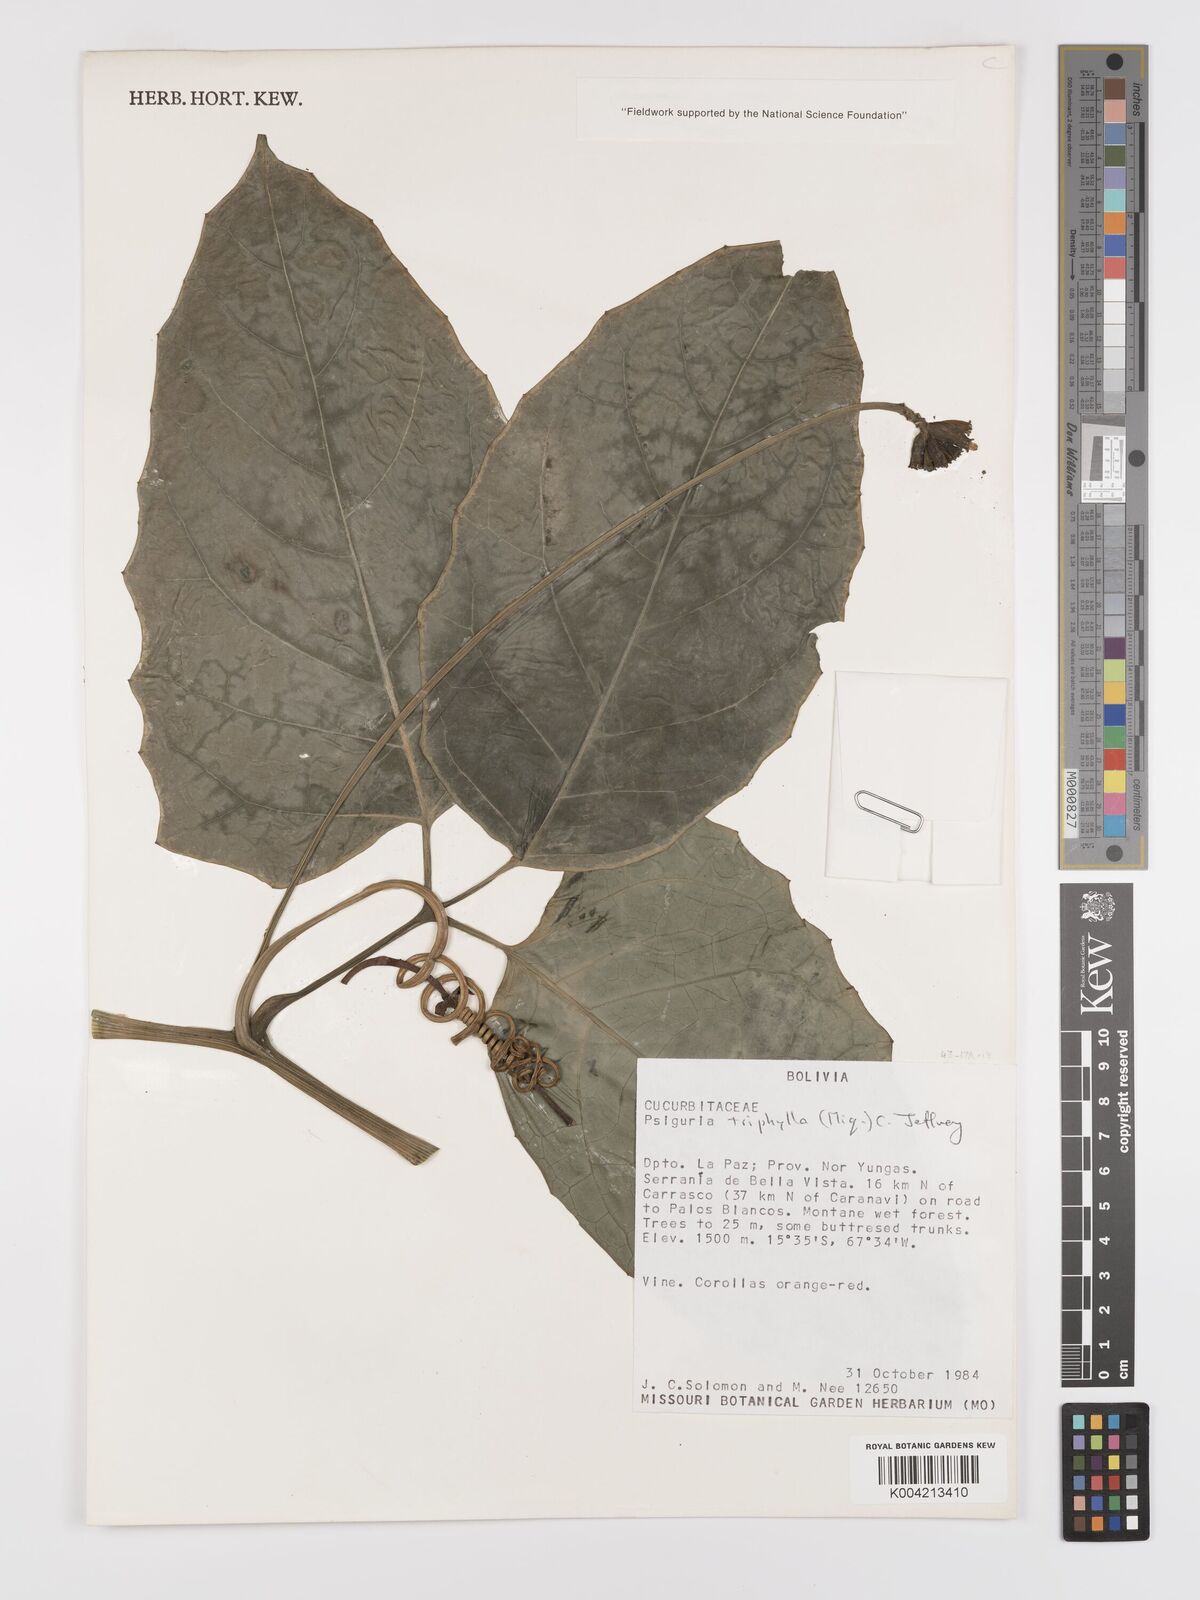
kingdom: Plantae
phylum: Tracheophyta
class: Magnoliopsida
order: Cucurbitales
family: Cucurbitaceae
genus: Psiguria
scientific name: Psiguria triphylla
